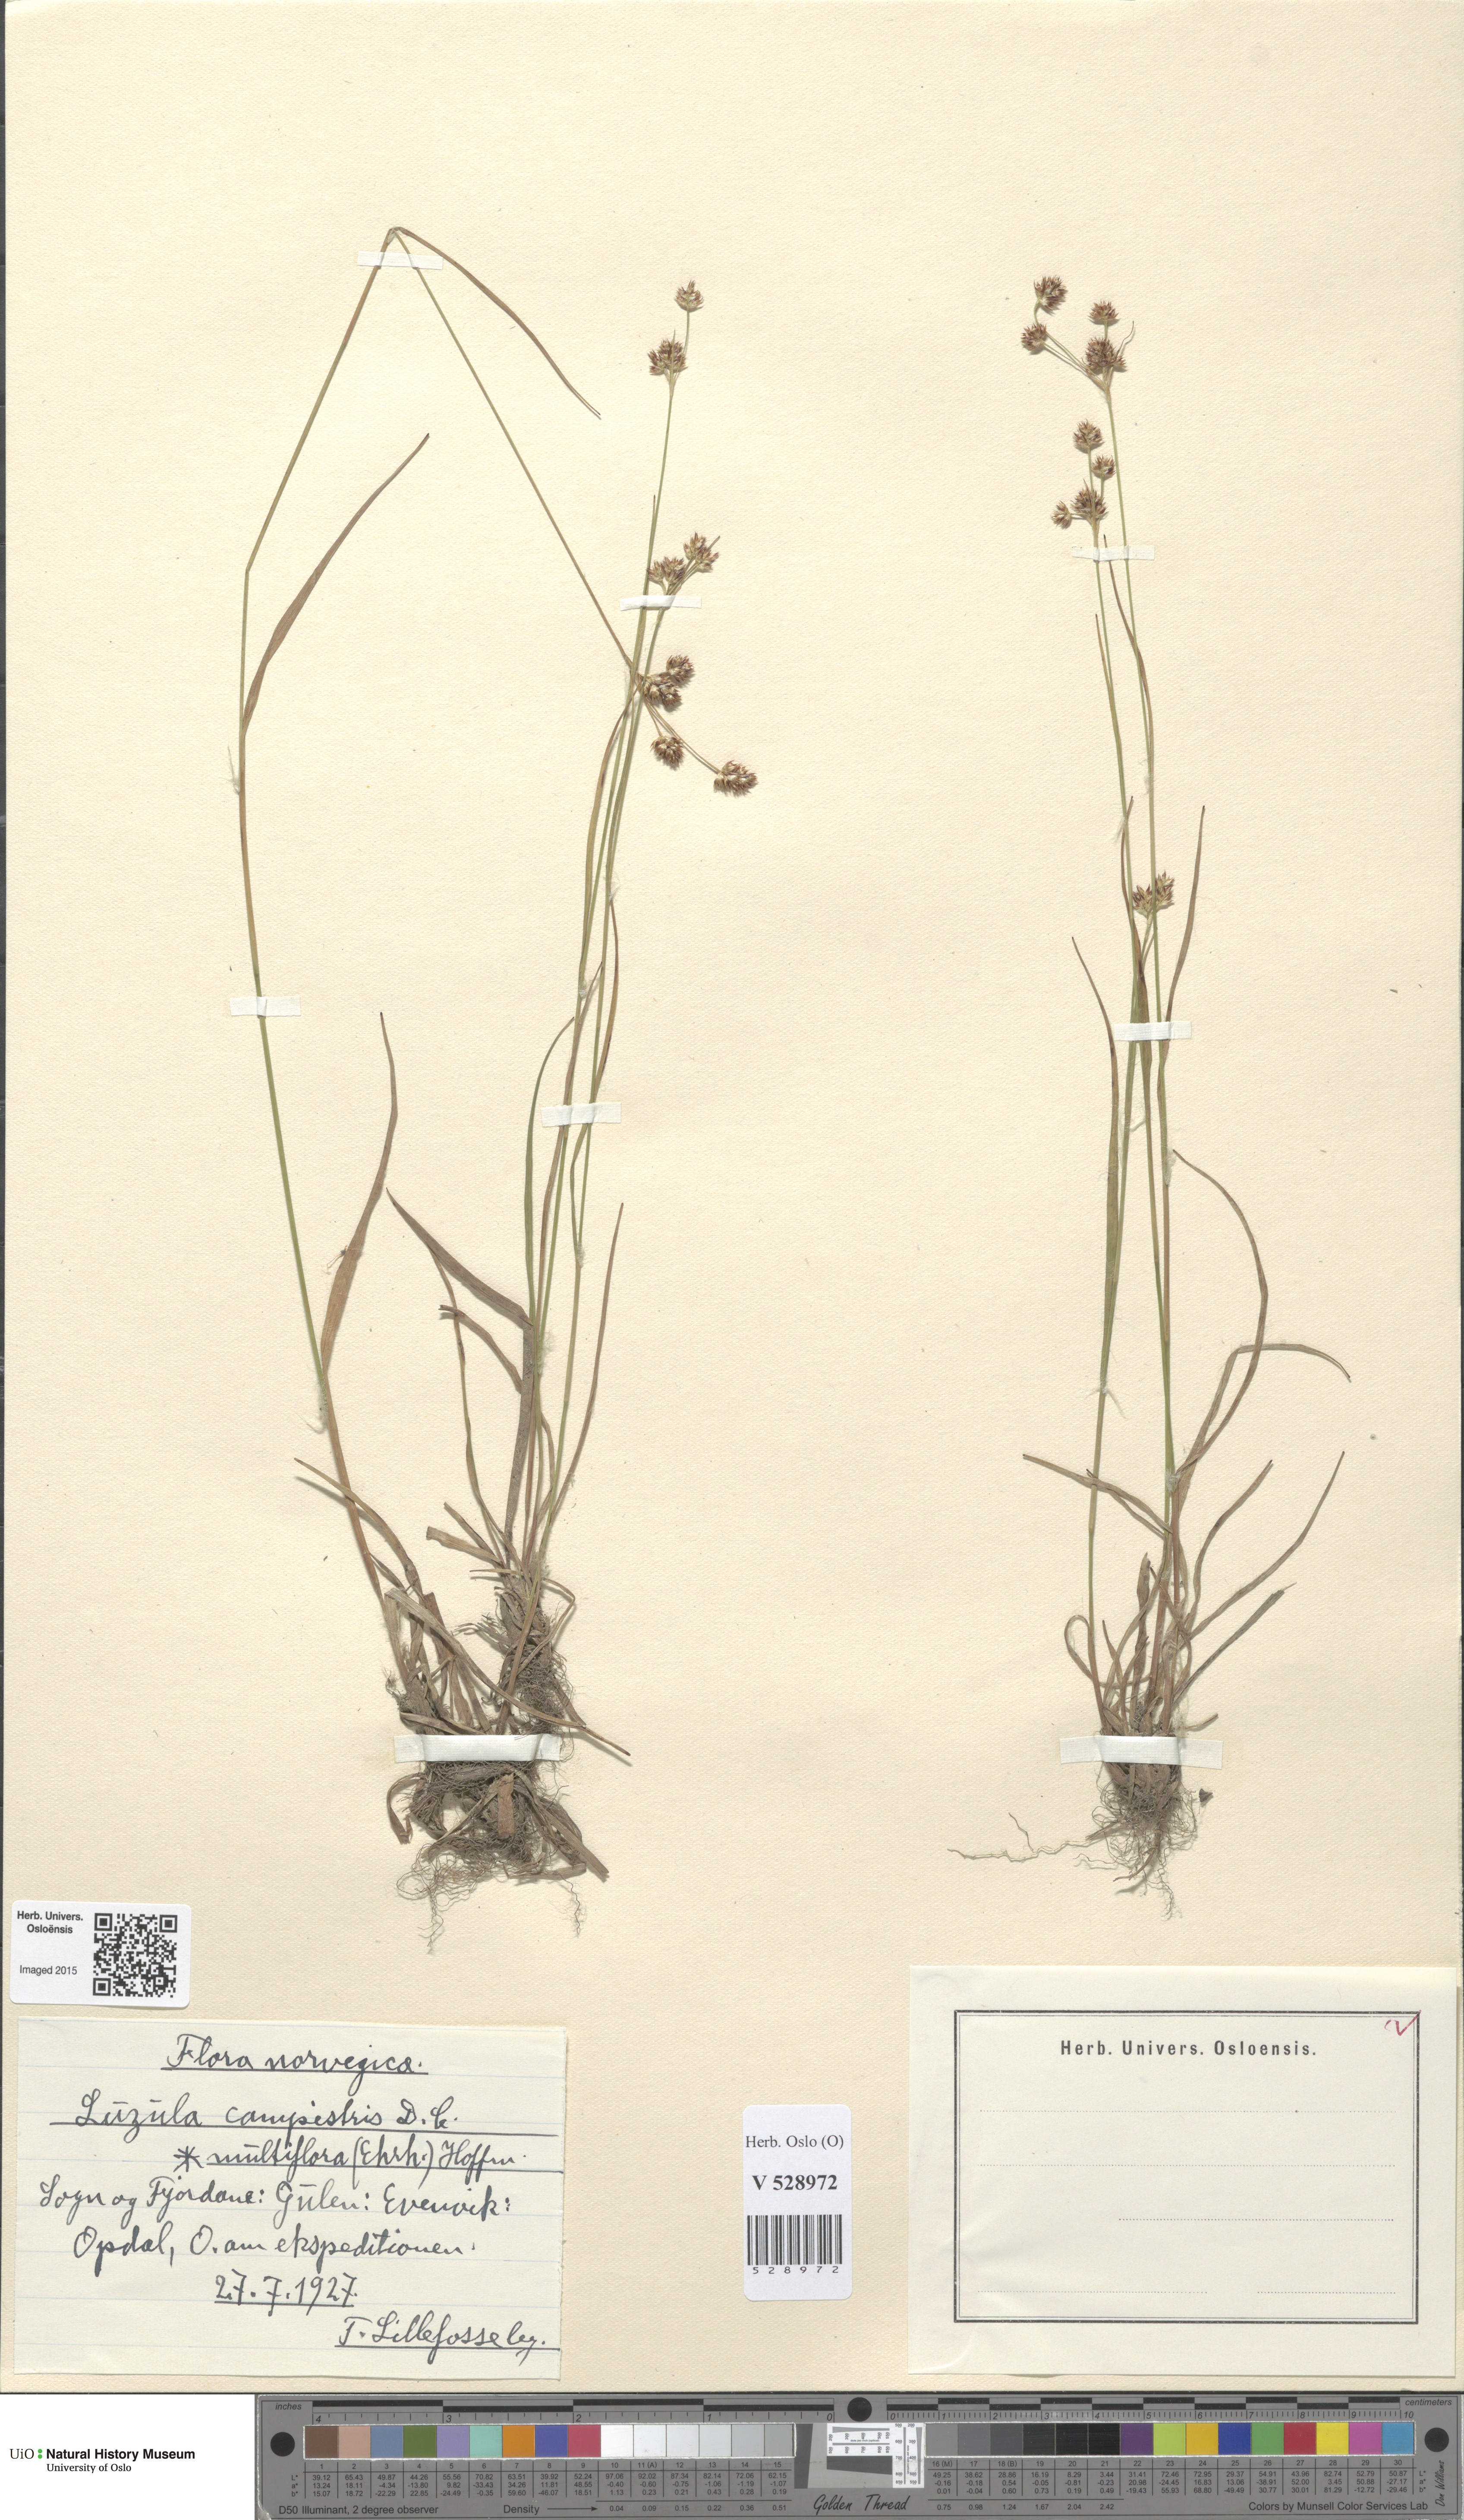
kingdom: Plantae
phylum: Tracheophyta
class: Liliopsida
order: Poales
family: Juncaceae
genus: Luzula
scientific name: Luzula multiflora
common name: Heath wood-rush
